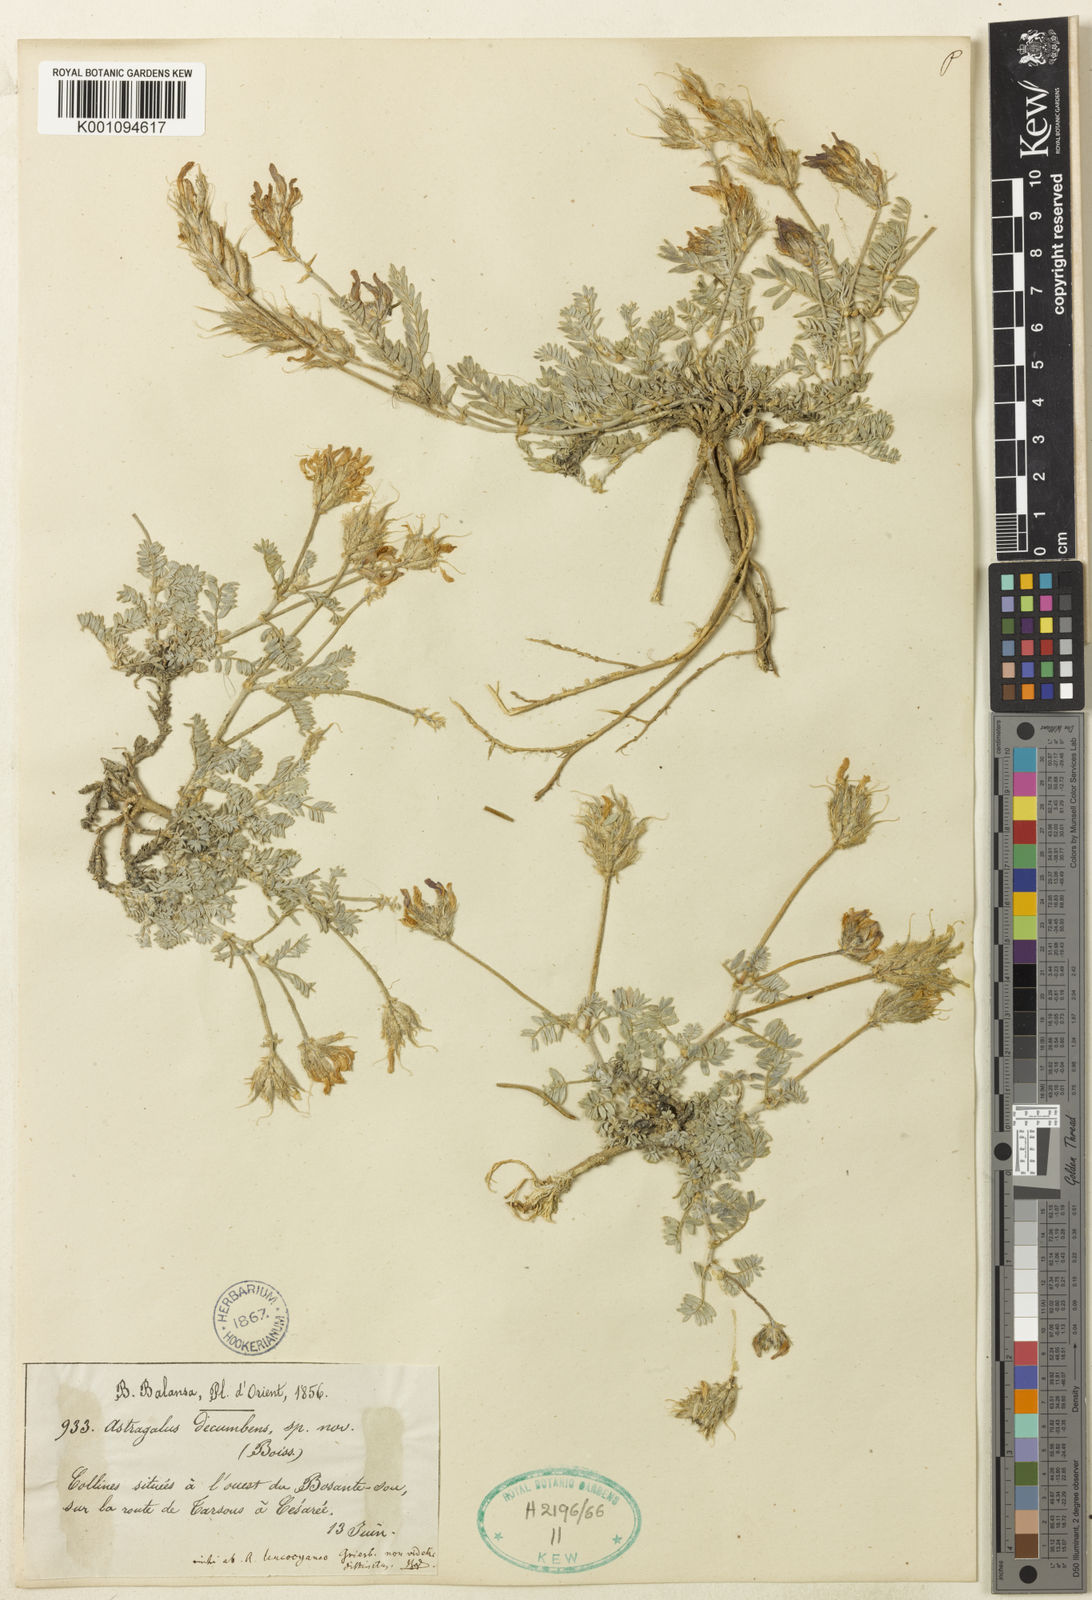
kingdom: Plantae
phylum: Tracheophyta
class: Magnoliopsida
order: Fabales
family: Fabaceae
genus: Astragalus
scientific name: Astragalus
